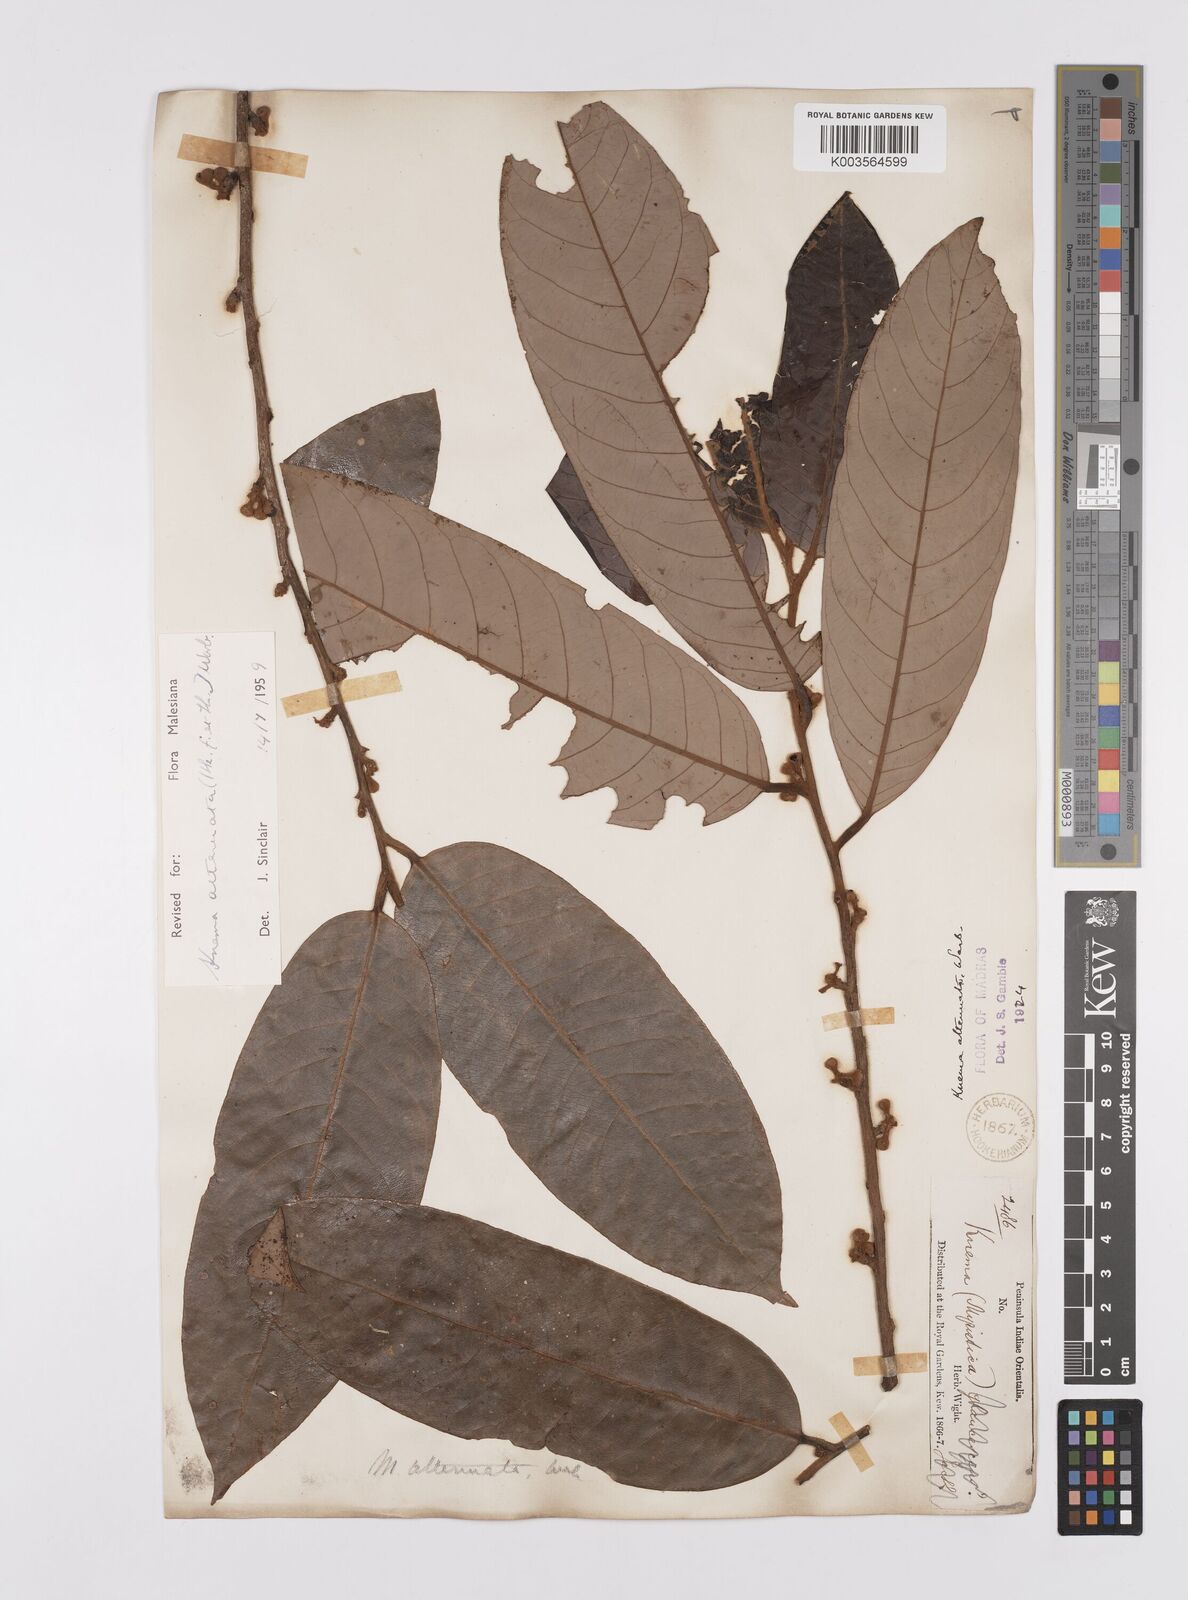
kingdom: Plantae
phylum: Tracheophyta
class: Magnoliopsida
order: Magnoliales
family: Myristicaceae
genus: Knema
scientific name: Knema attenuata
